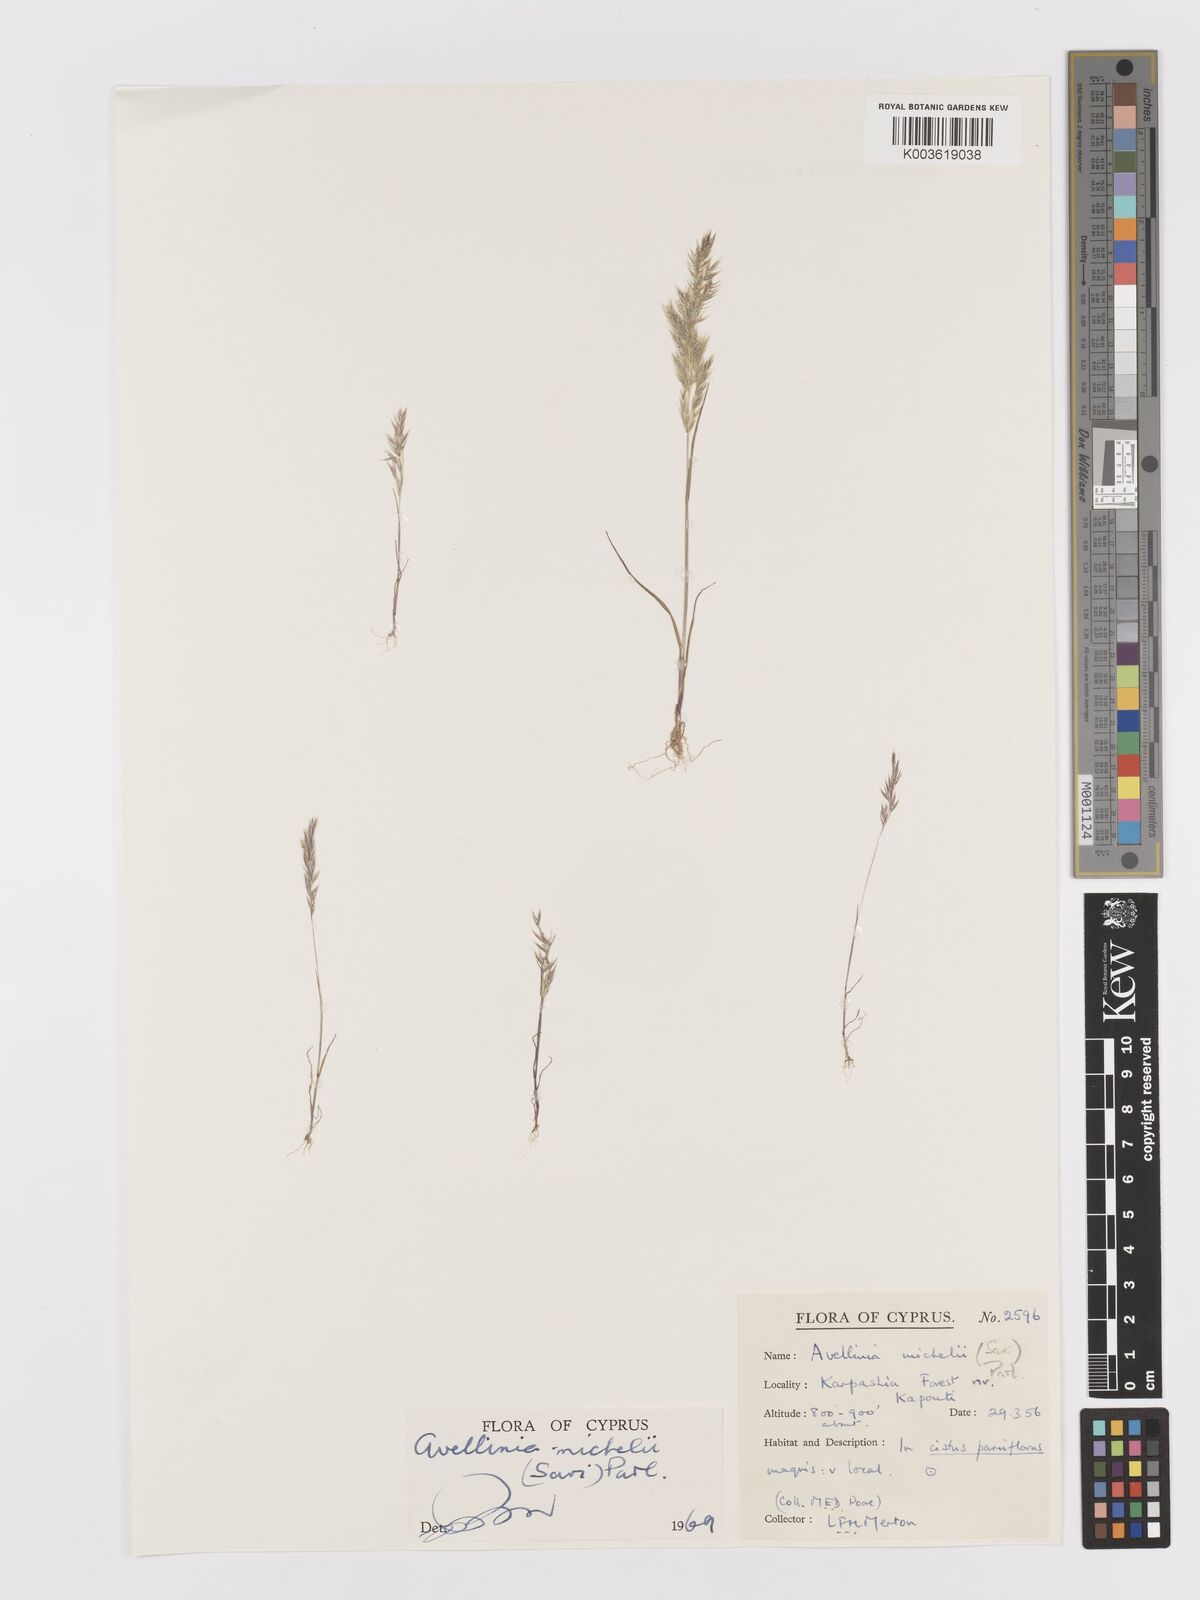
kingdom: Plantae
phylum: Tracheophyta
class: Liliopsida
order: Poales
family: Poaceae
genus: Avellinia
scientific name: Avellinia festucoides
